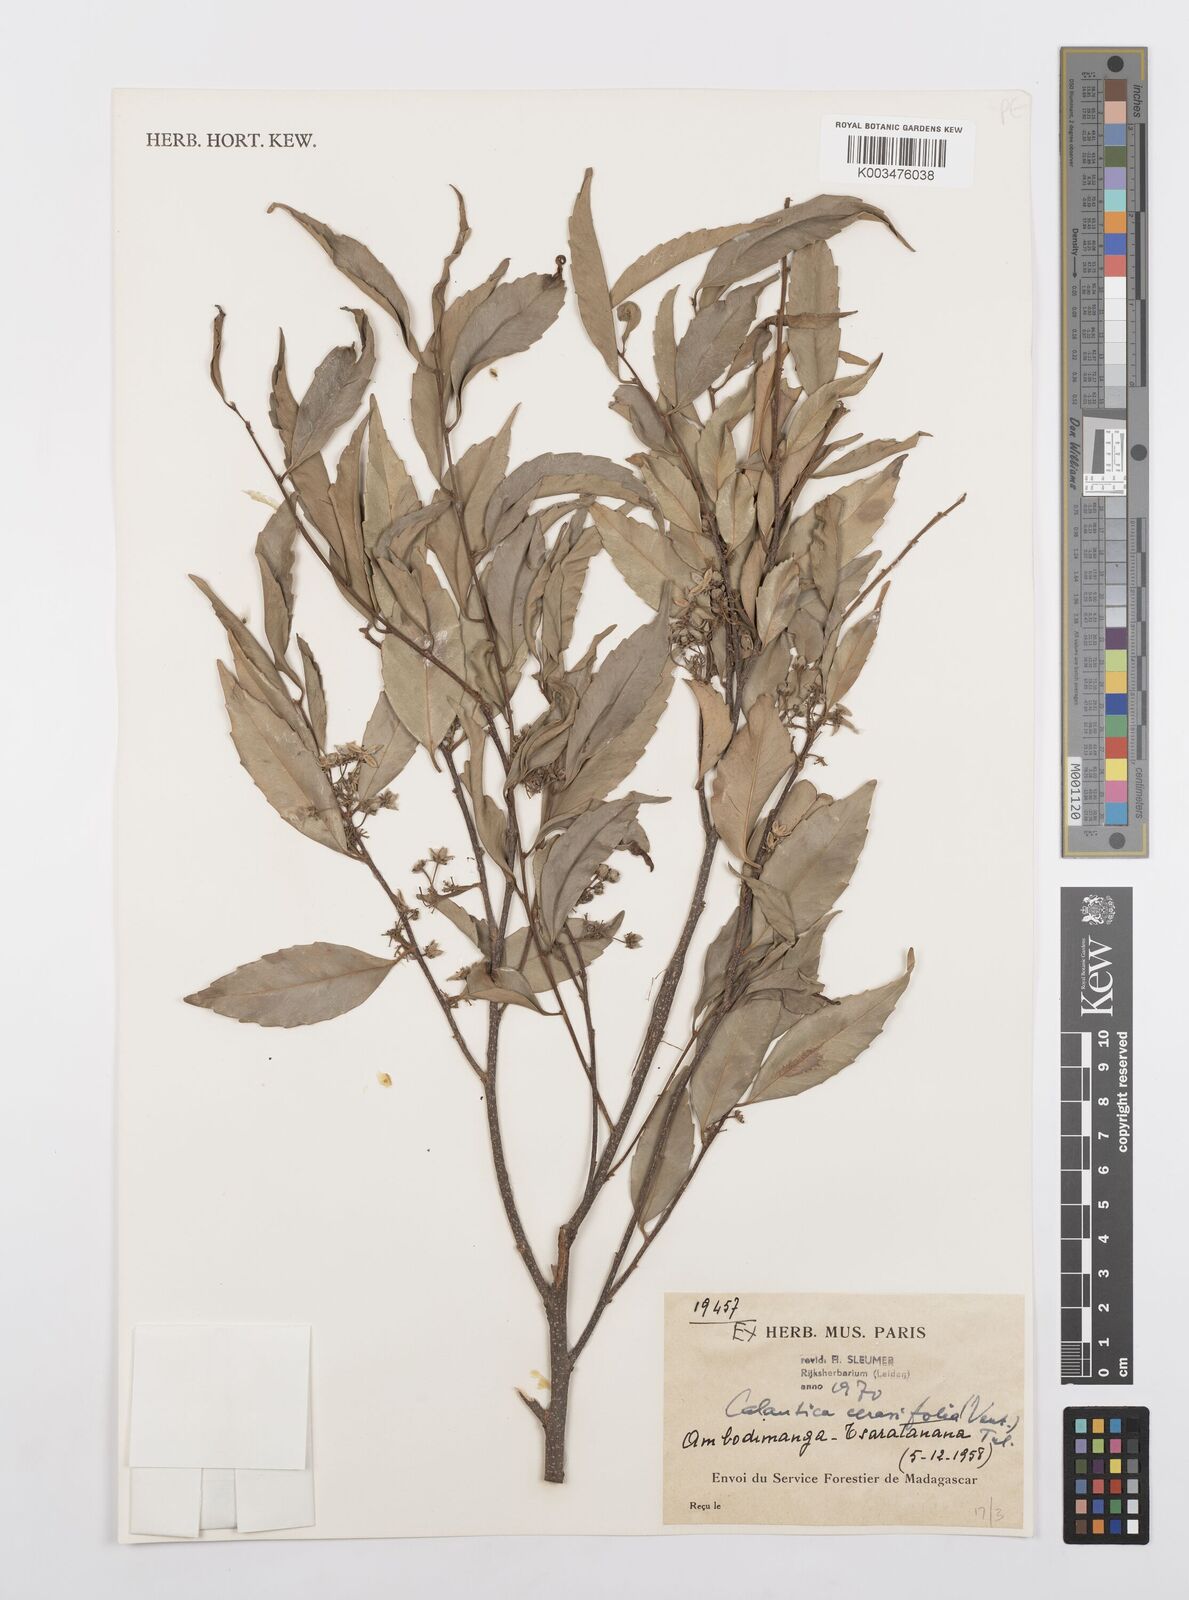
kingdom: Plantae
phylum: Tracheophyta
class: Magnoliopsida
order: Malpighiales
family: Salicaceae
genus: Calantica
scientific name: Calantica cerasifolia
